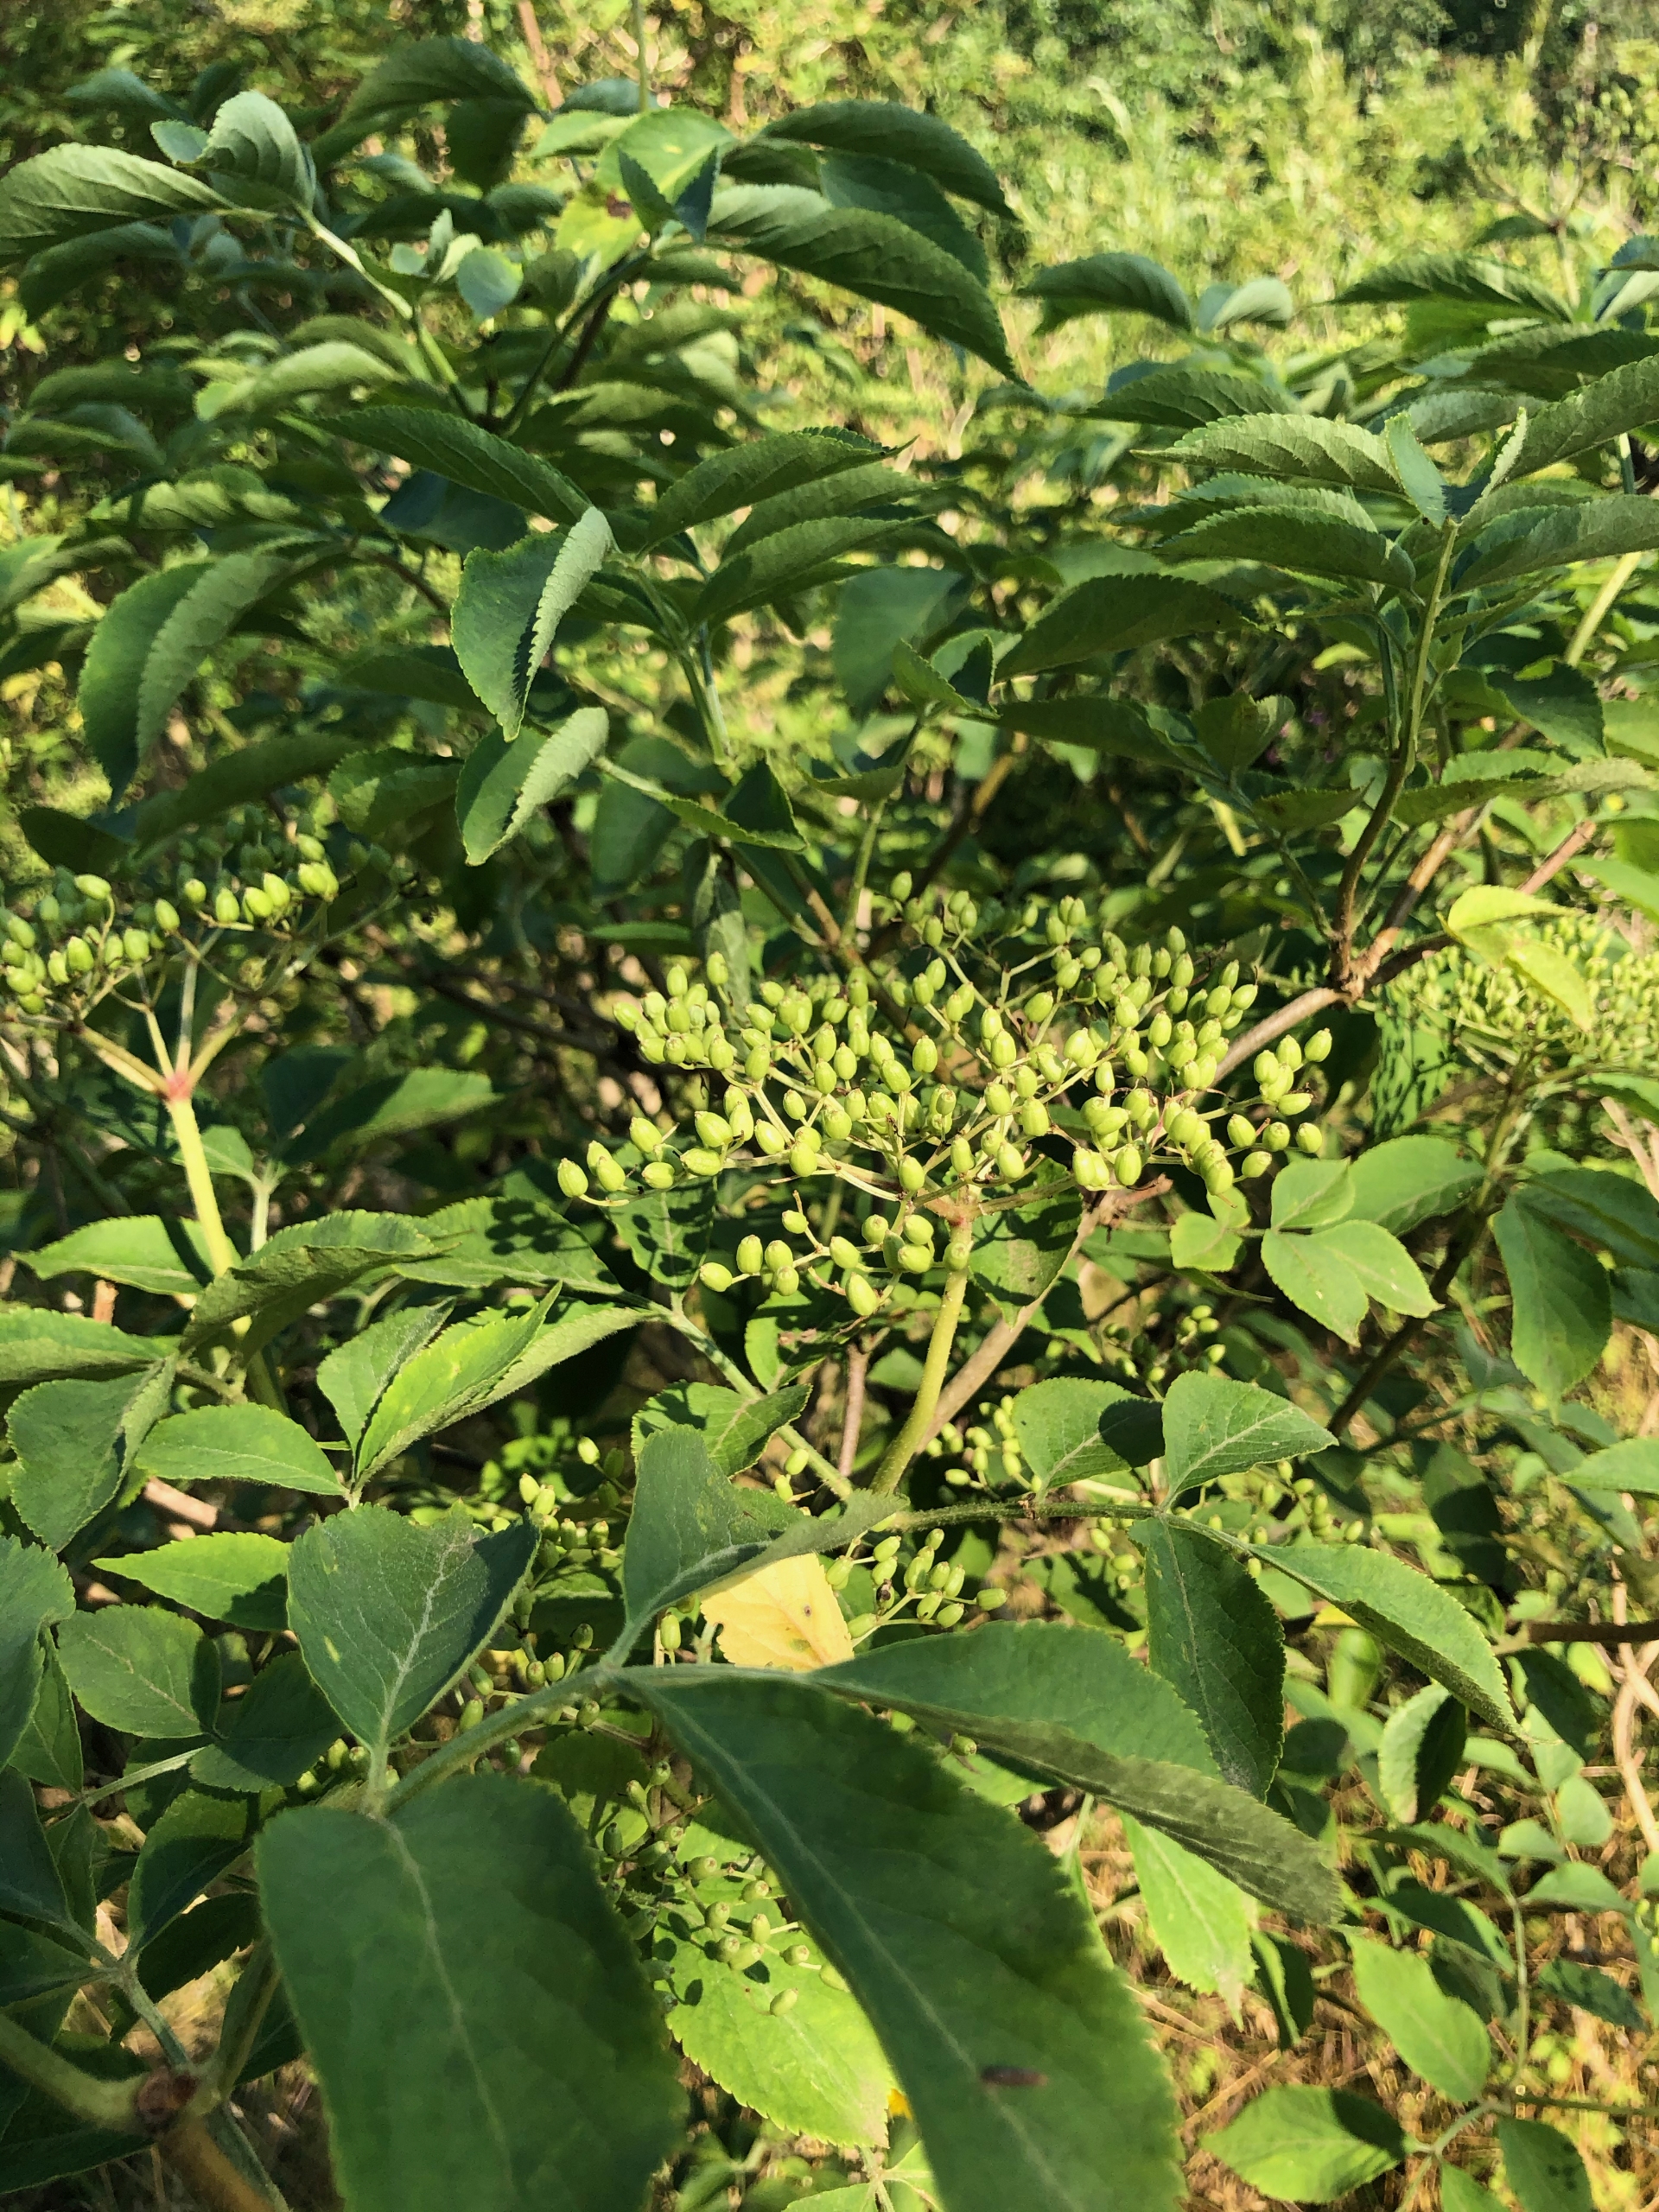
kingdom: Plantae
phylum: Tracheophyta
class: Magnoliopsida
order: Dipsacales
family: Viburnaceae
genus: Sambucus
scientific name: Sambucus nigra
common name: Almindelig hyld
